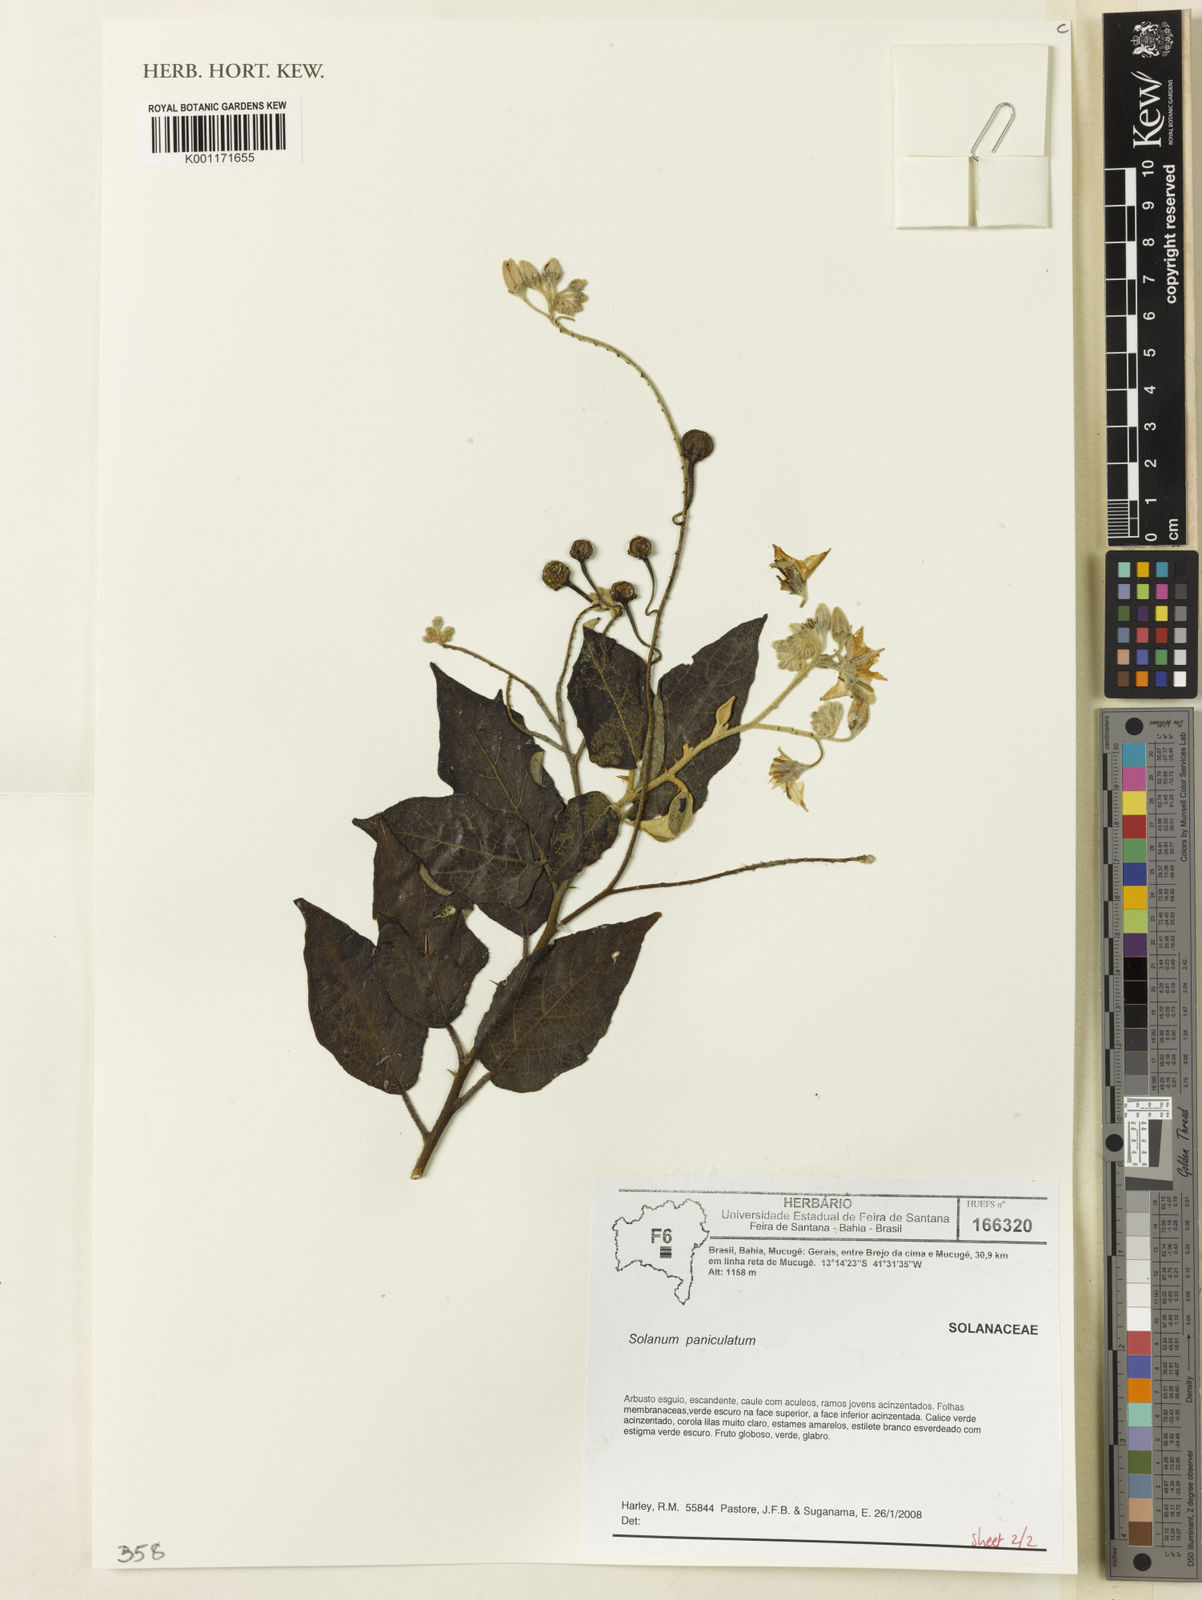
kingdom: Plantae
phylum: Tracheophyta
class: Magnoliopsida
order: Solanales
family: Solanaceae
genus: Solanum
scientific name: Solanum paniculatum
